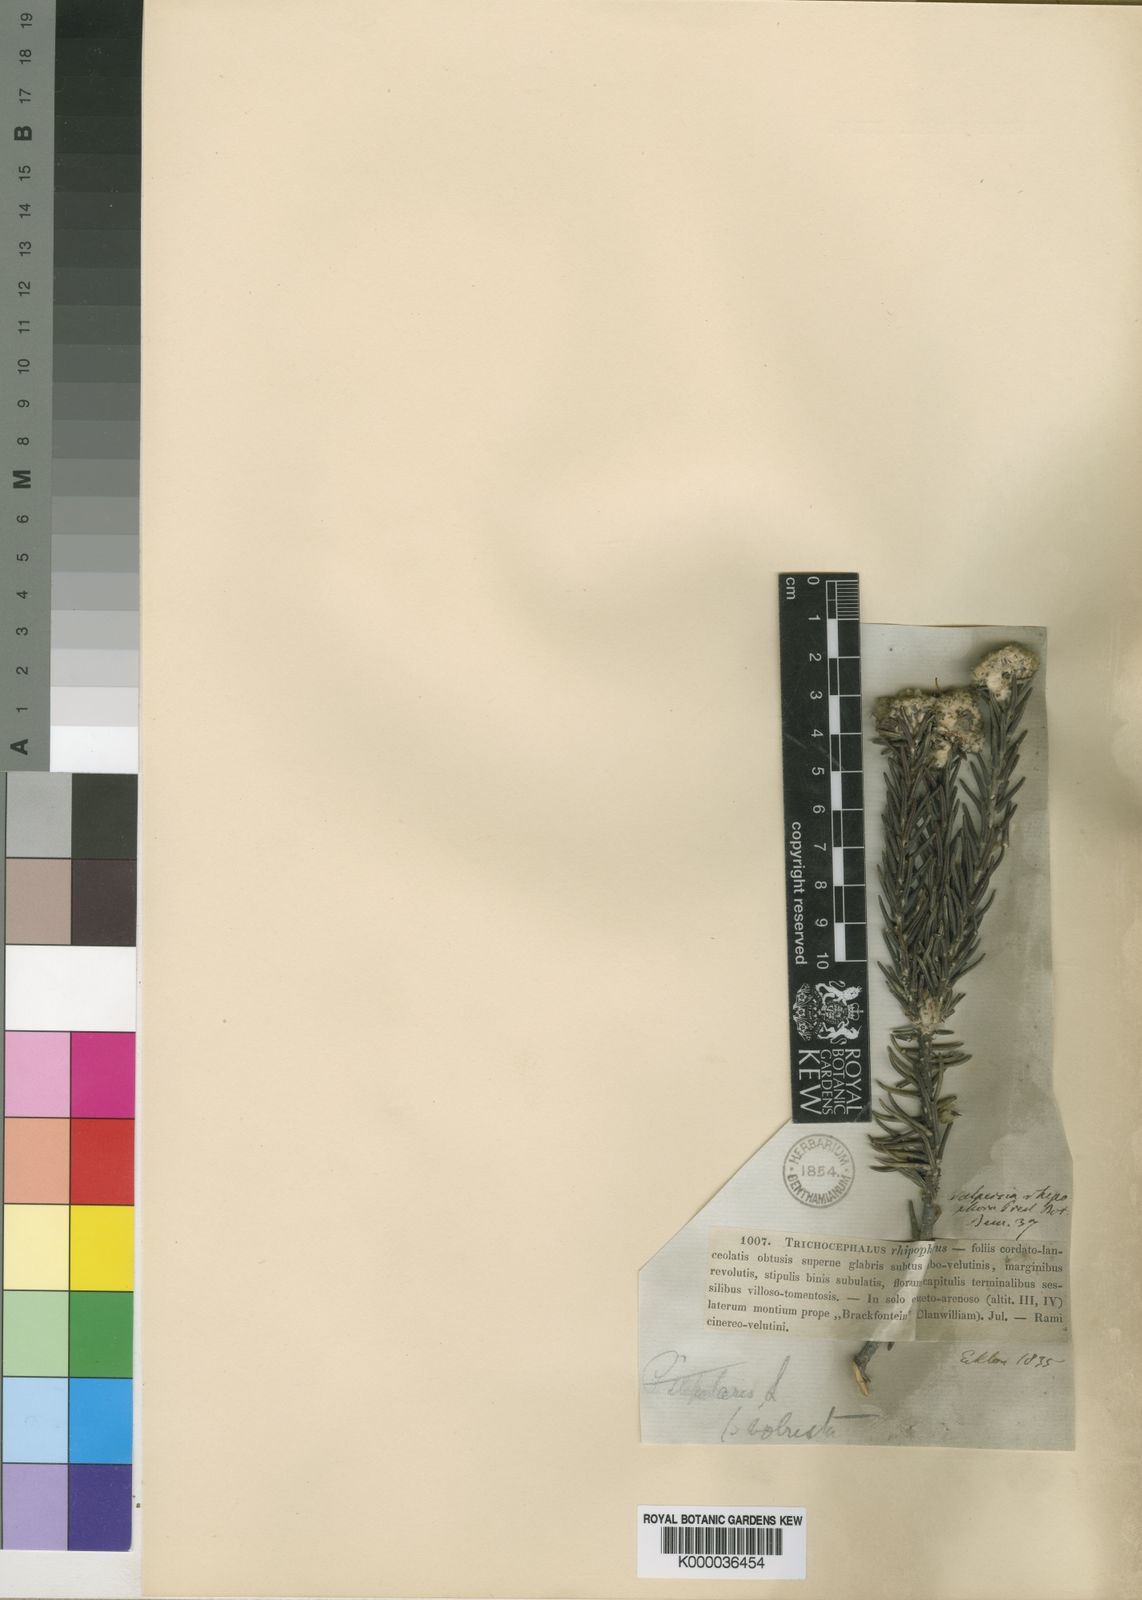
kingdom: Plantae
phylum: Tracheophyta
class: Magnoliopsida
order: Rosales
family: Rhamnaceae
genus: Trichocephalus
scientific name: Trichocephalus stipularis
